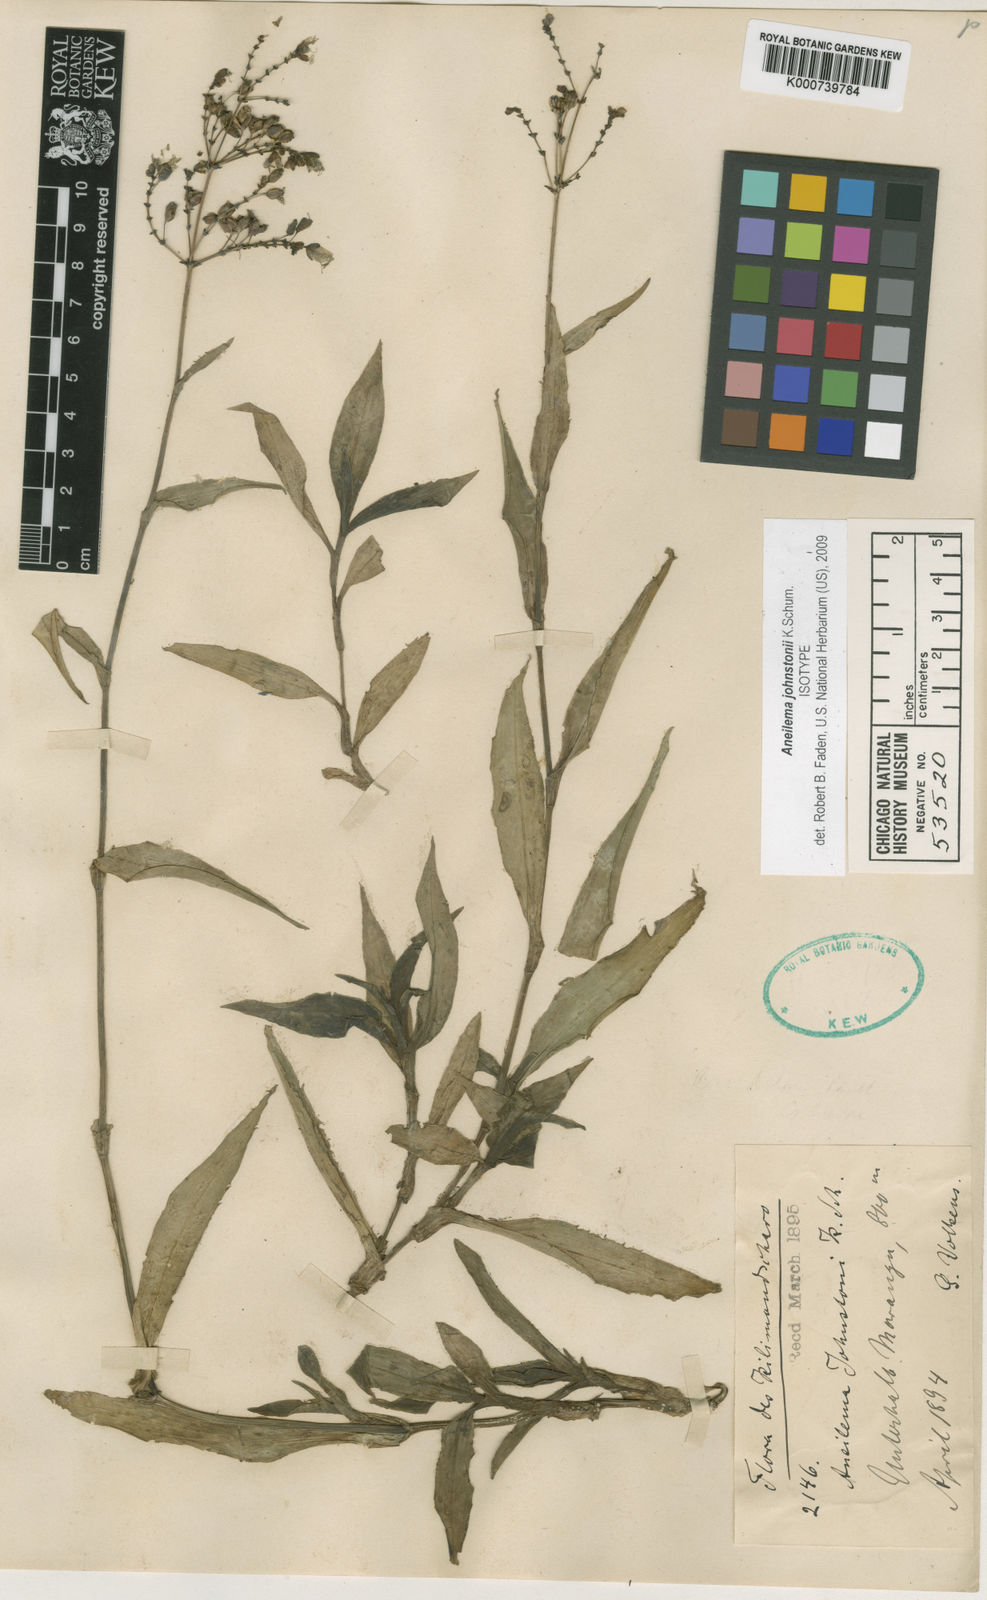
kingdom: Plantae
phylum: Tracheophyta
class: Liliopsida
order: Commelinales
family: Commelinaceae
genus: Aneilema
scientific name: Aneilema johnstonii
